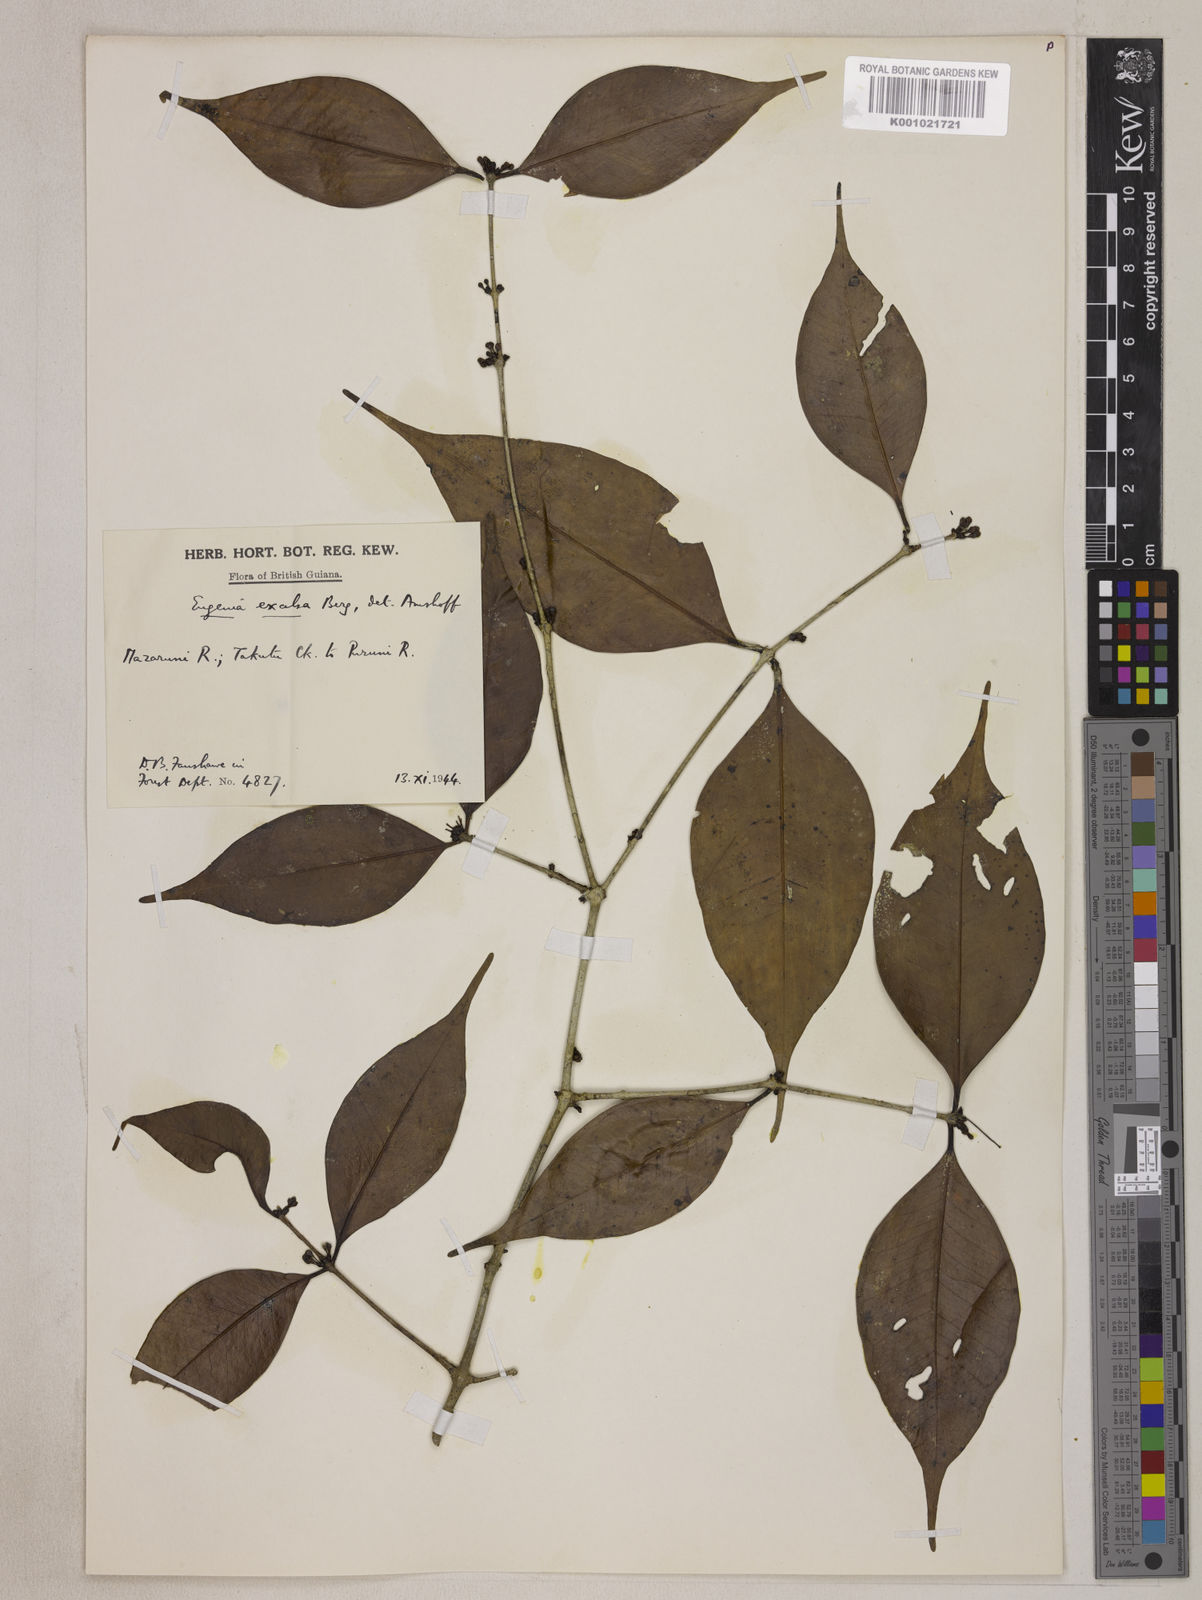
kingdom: Plantae
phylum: Tracheophyta
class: Magnoliopsida
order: Myrtales
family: Myrtaceae
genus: Eugenia
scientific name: Eugenia excelsa
